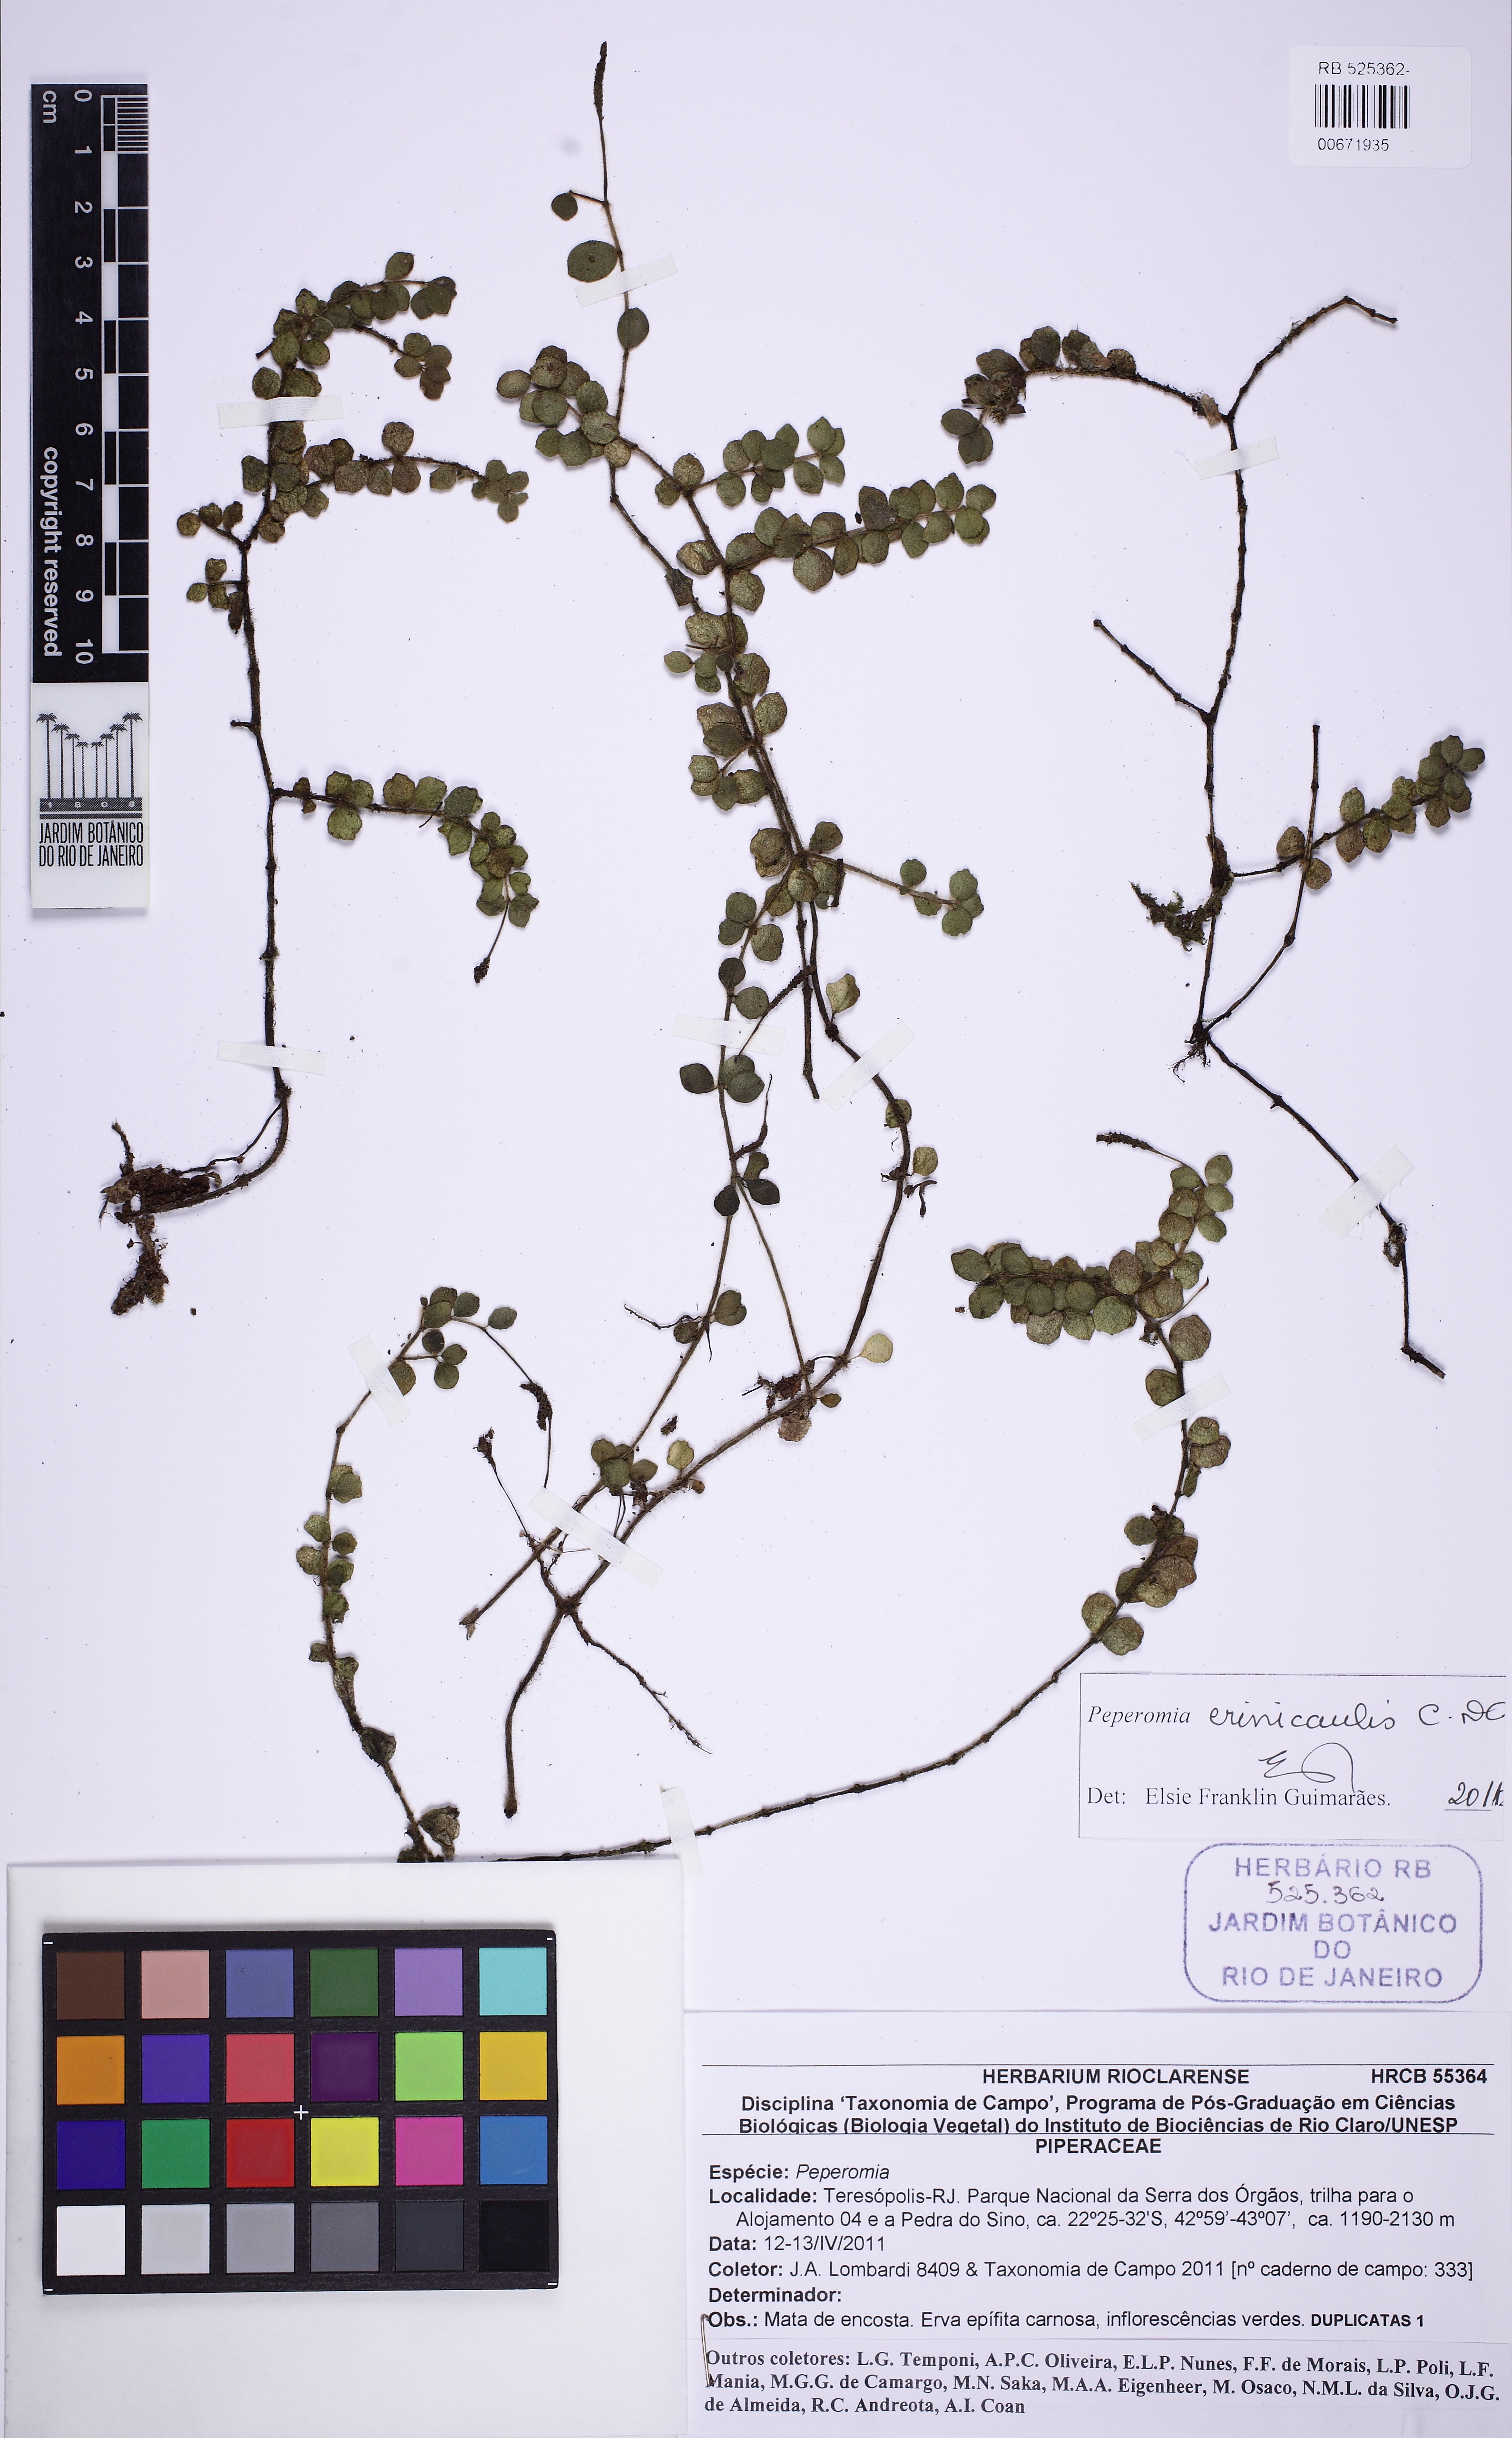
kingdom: Plantae
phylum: Tracheophyta
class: Magnoliopsida
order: Piperales
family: Piperaceae
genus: Peperomia
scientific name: Peperomia crinicaulis
